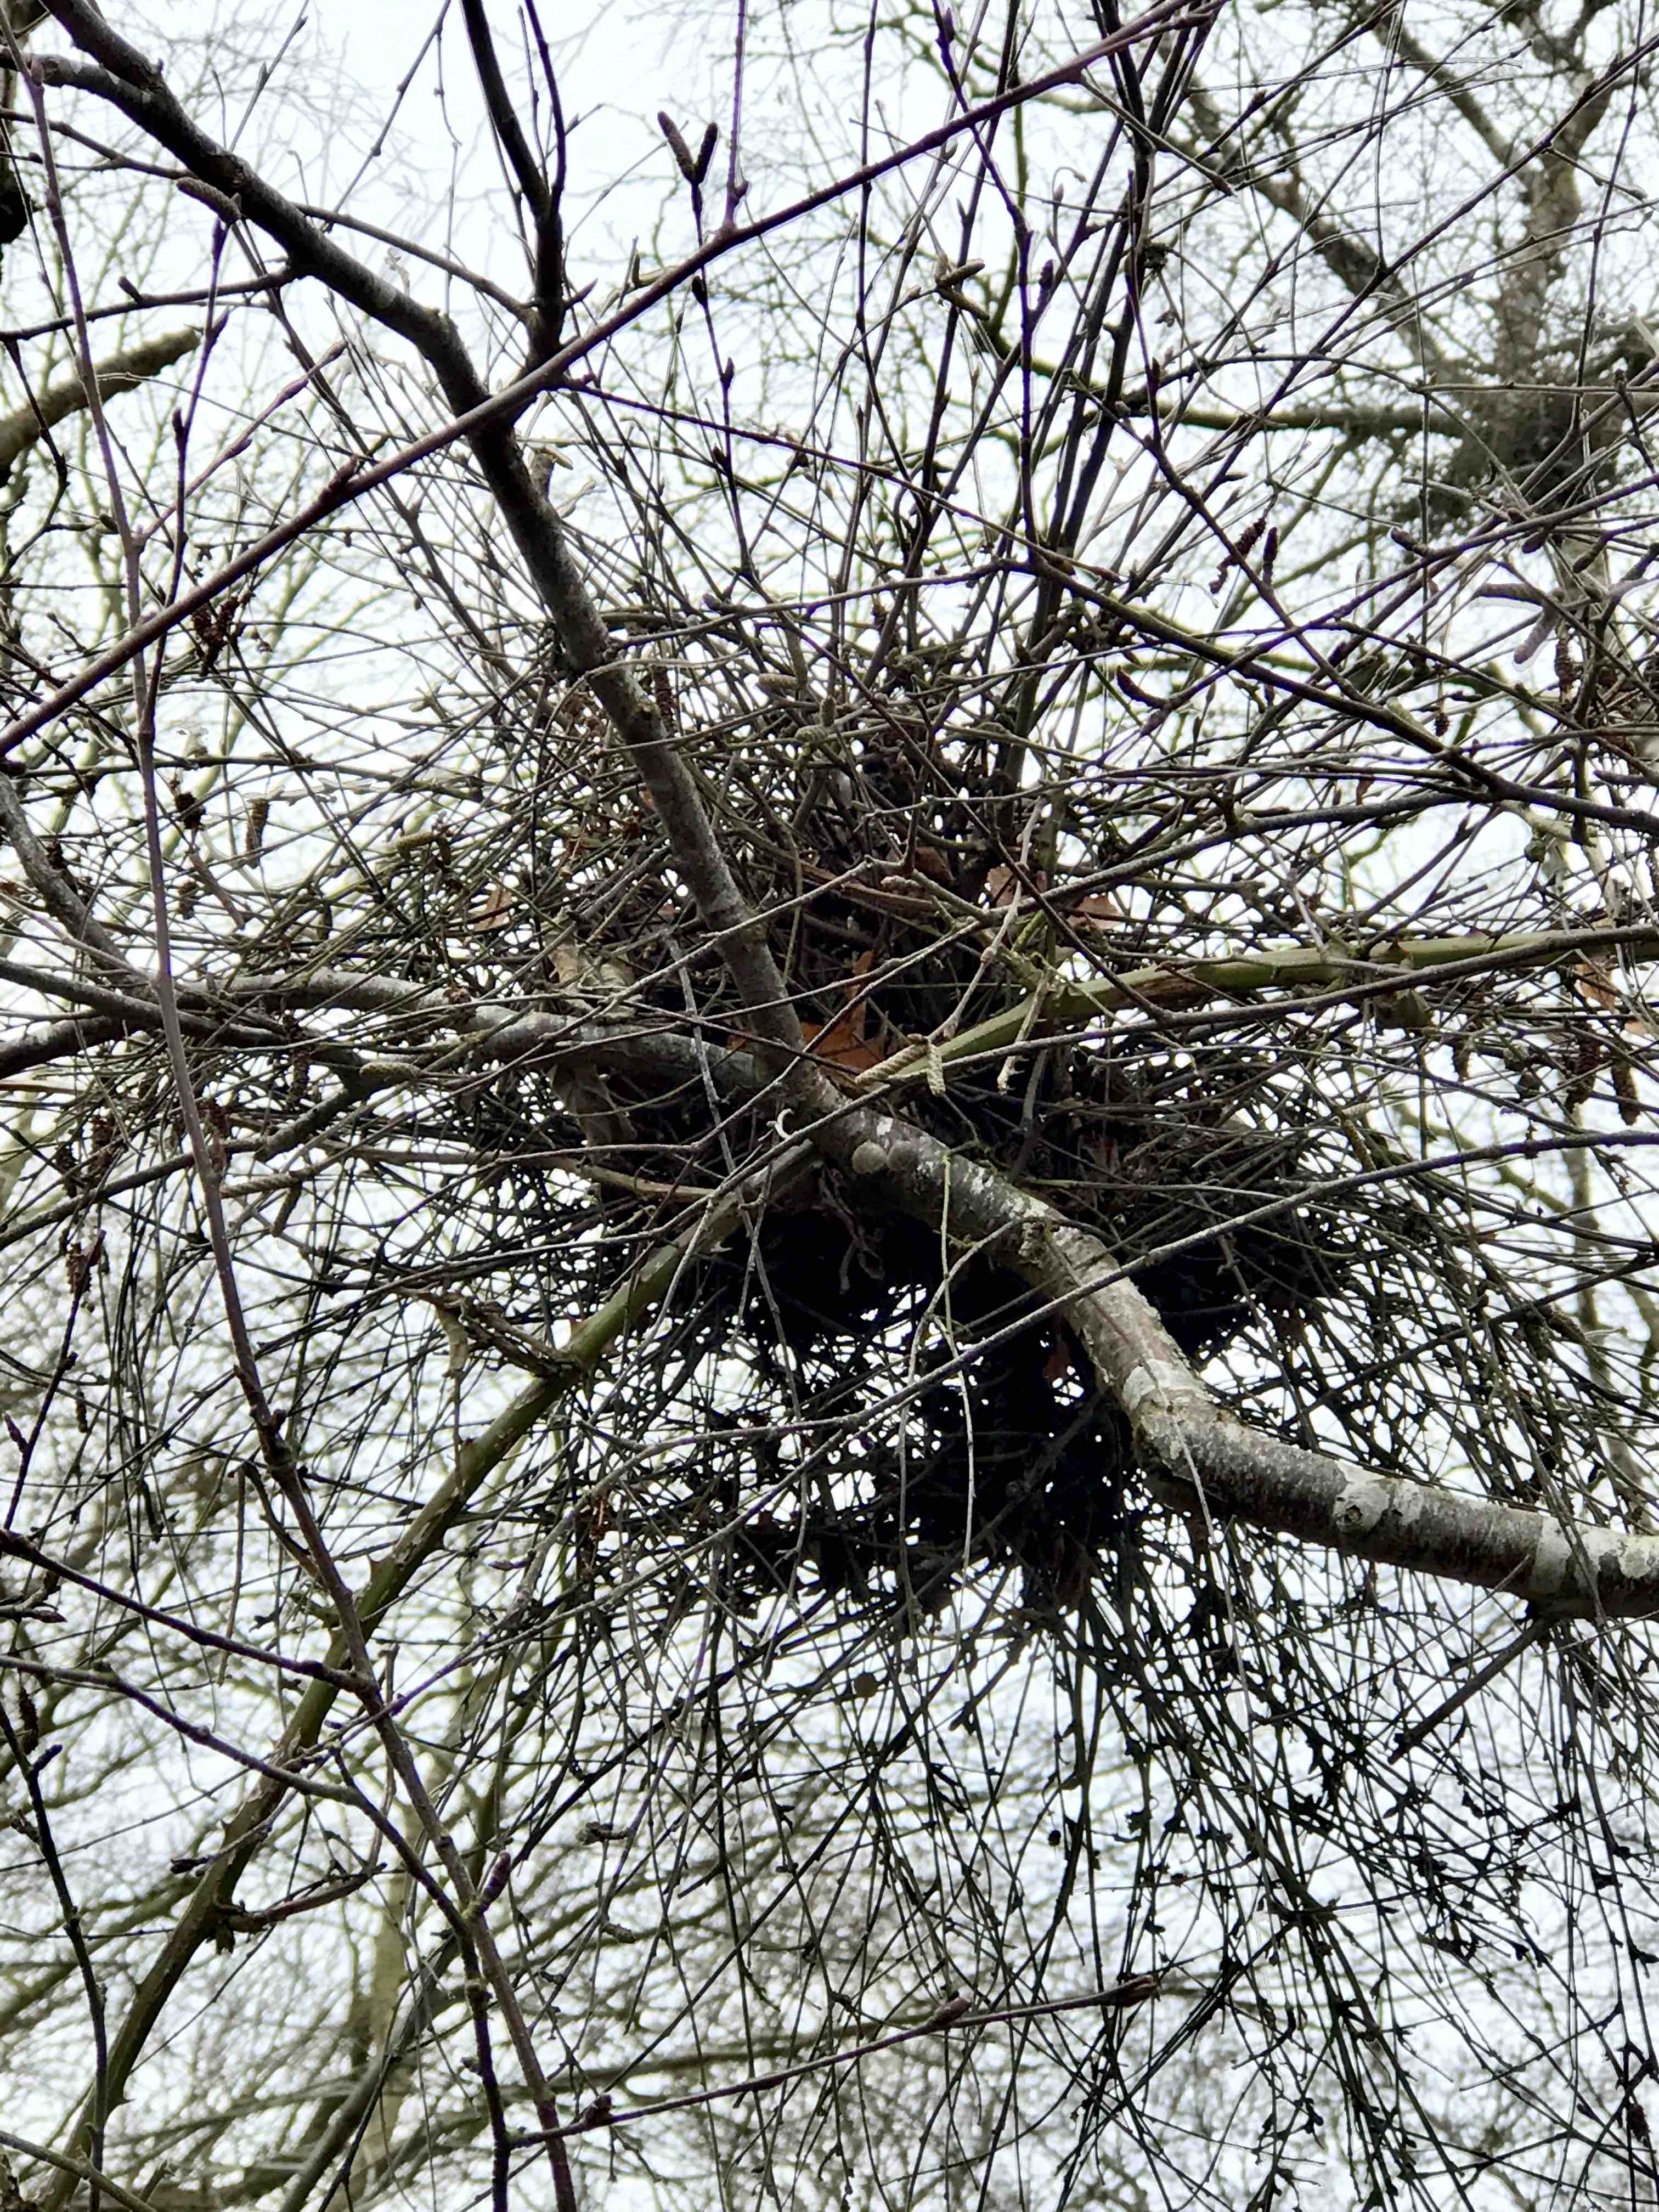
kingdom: Fungi
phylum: Ascomycota
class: Taphrinomycetes
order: Taphrinales
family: Taphrinaceae
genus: Taphrina
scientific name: Taphrina betulina
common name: hekse-sækdug
